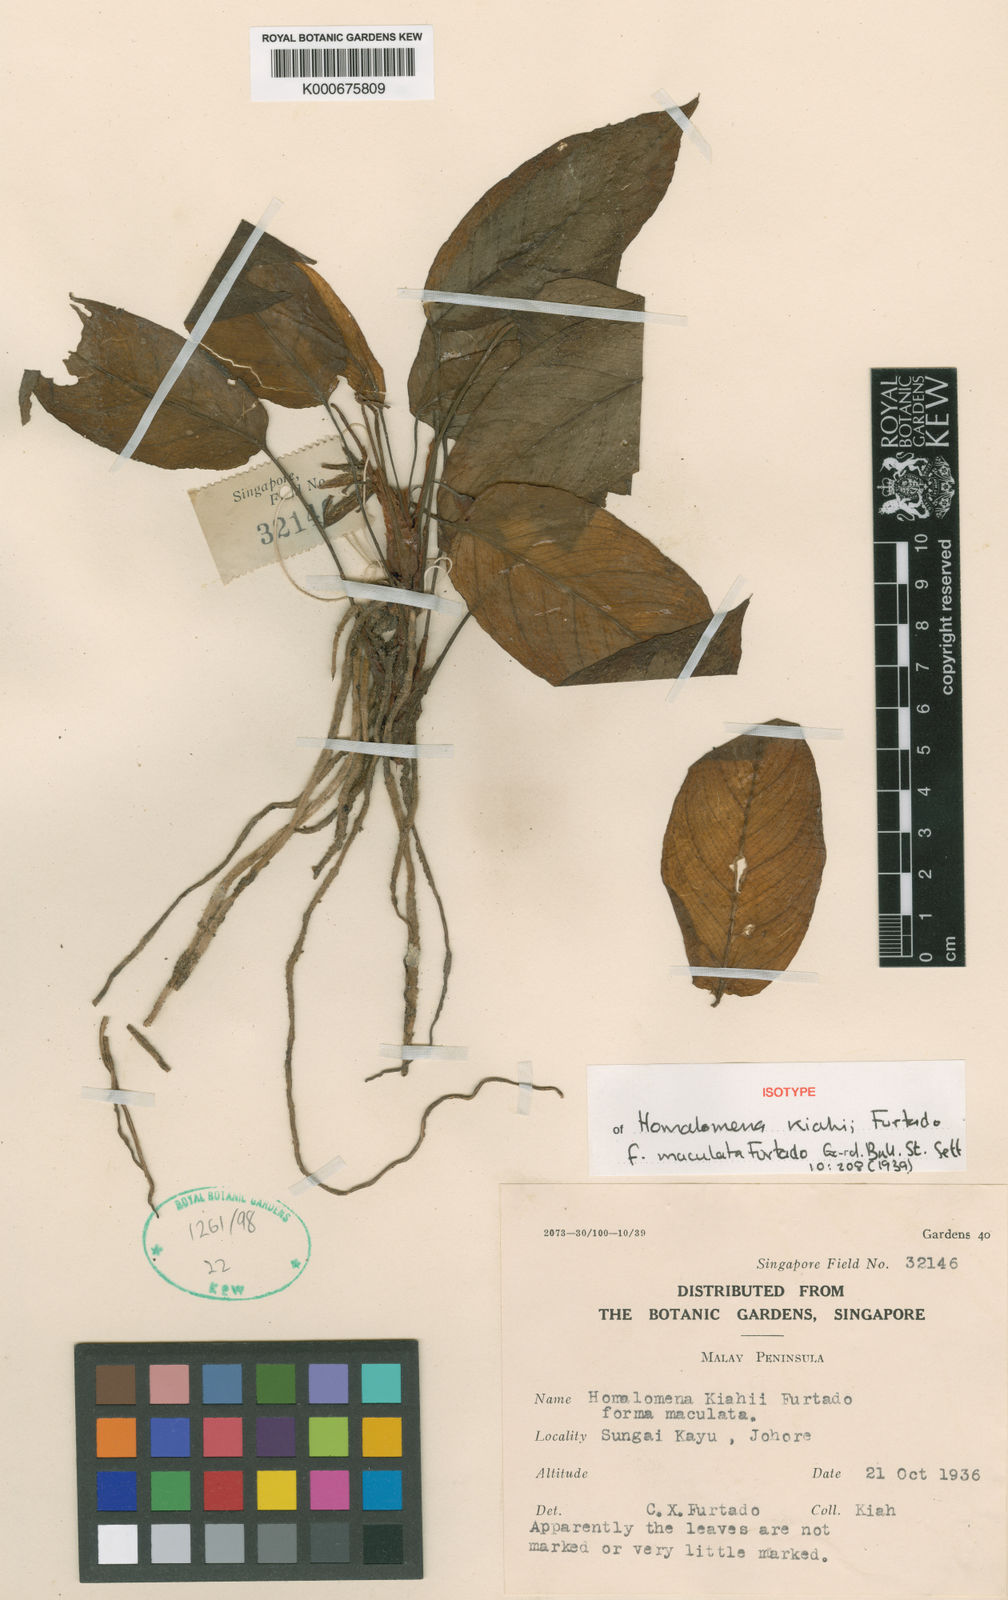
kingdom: Plantae
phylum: Tracheophyta
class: Liliopsida
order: Alismatales
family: Araceae
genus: Homalomena
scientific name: Homalomena kiahii
